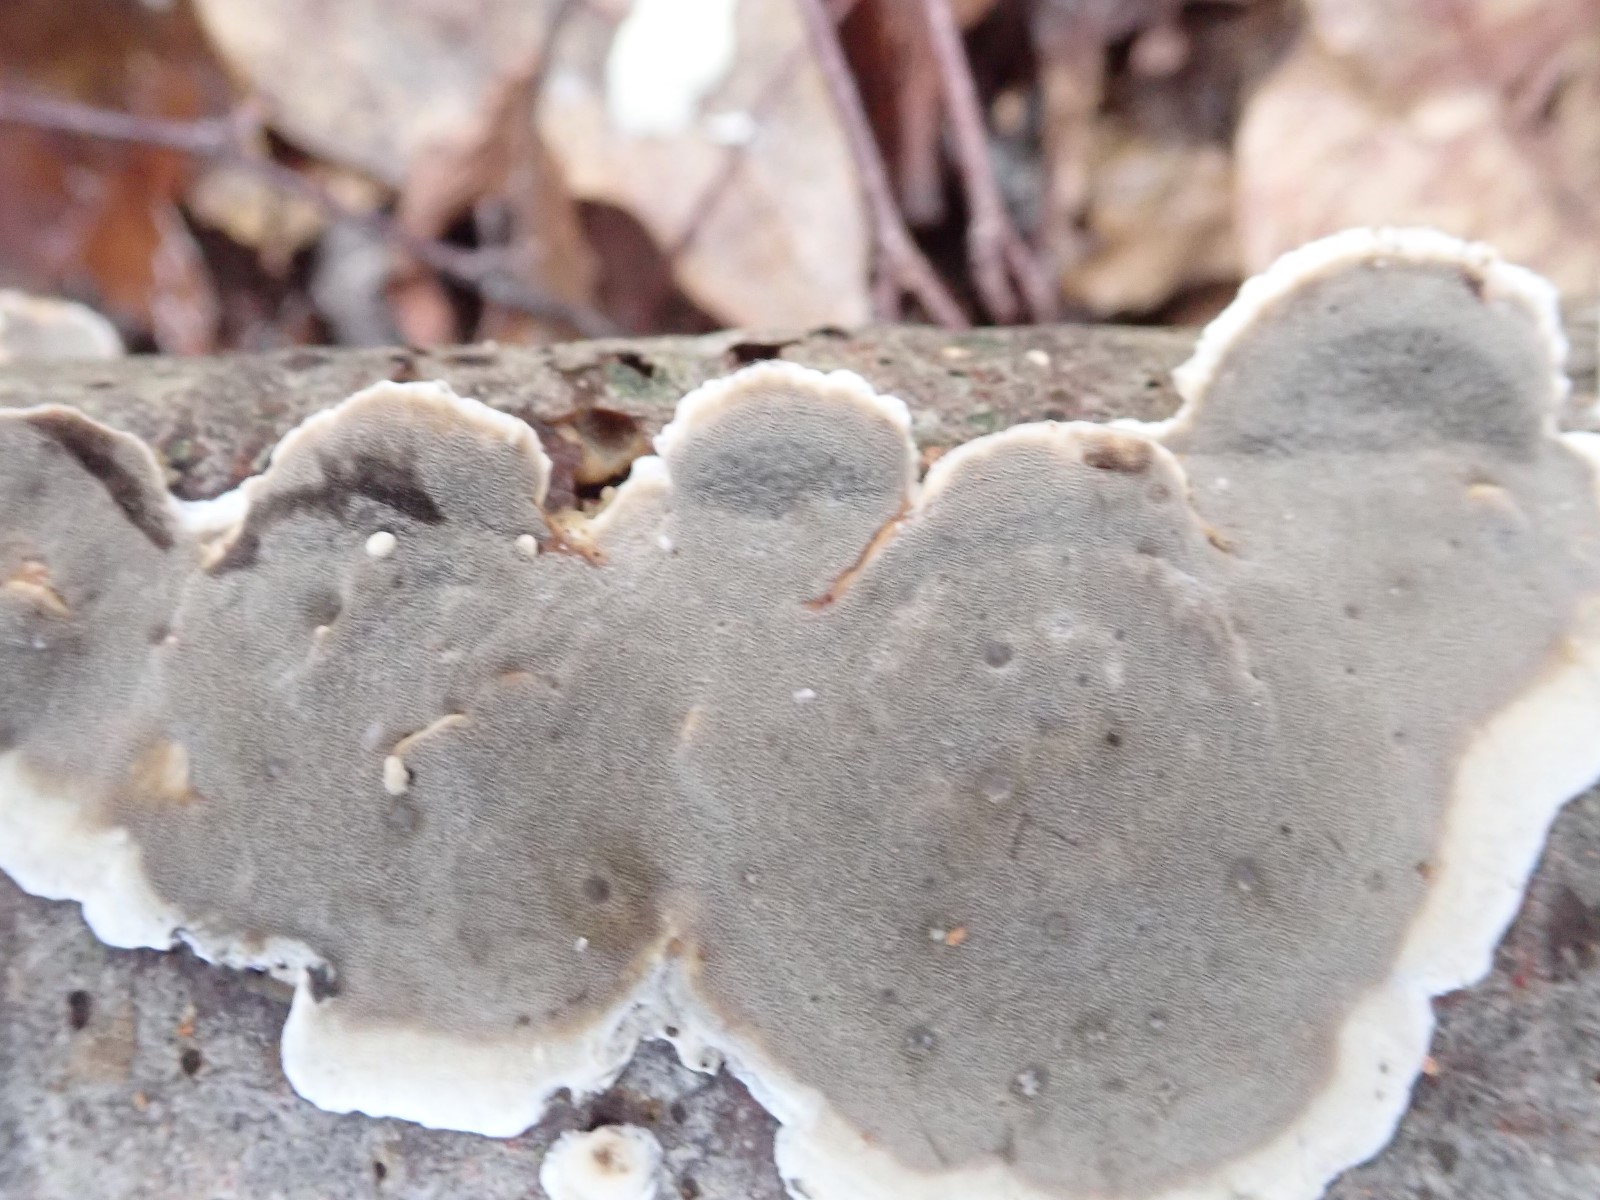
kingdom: Fungi
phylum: Basidiomycota
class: Agaricomycetes
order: Polyporales
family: Phanerochaetaceae
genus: Bjerkandera
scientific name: Bjerkandera adusta
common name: sveden sodporesvamp
